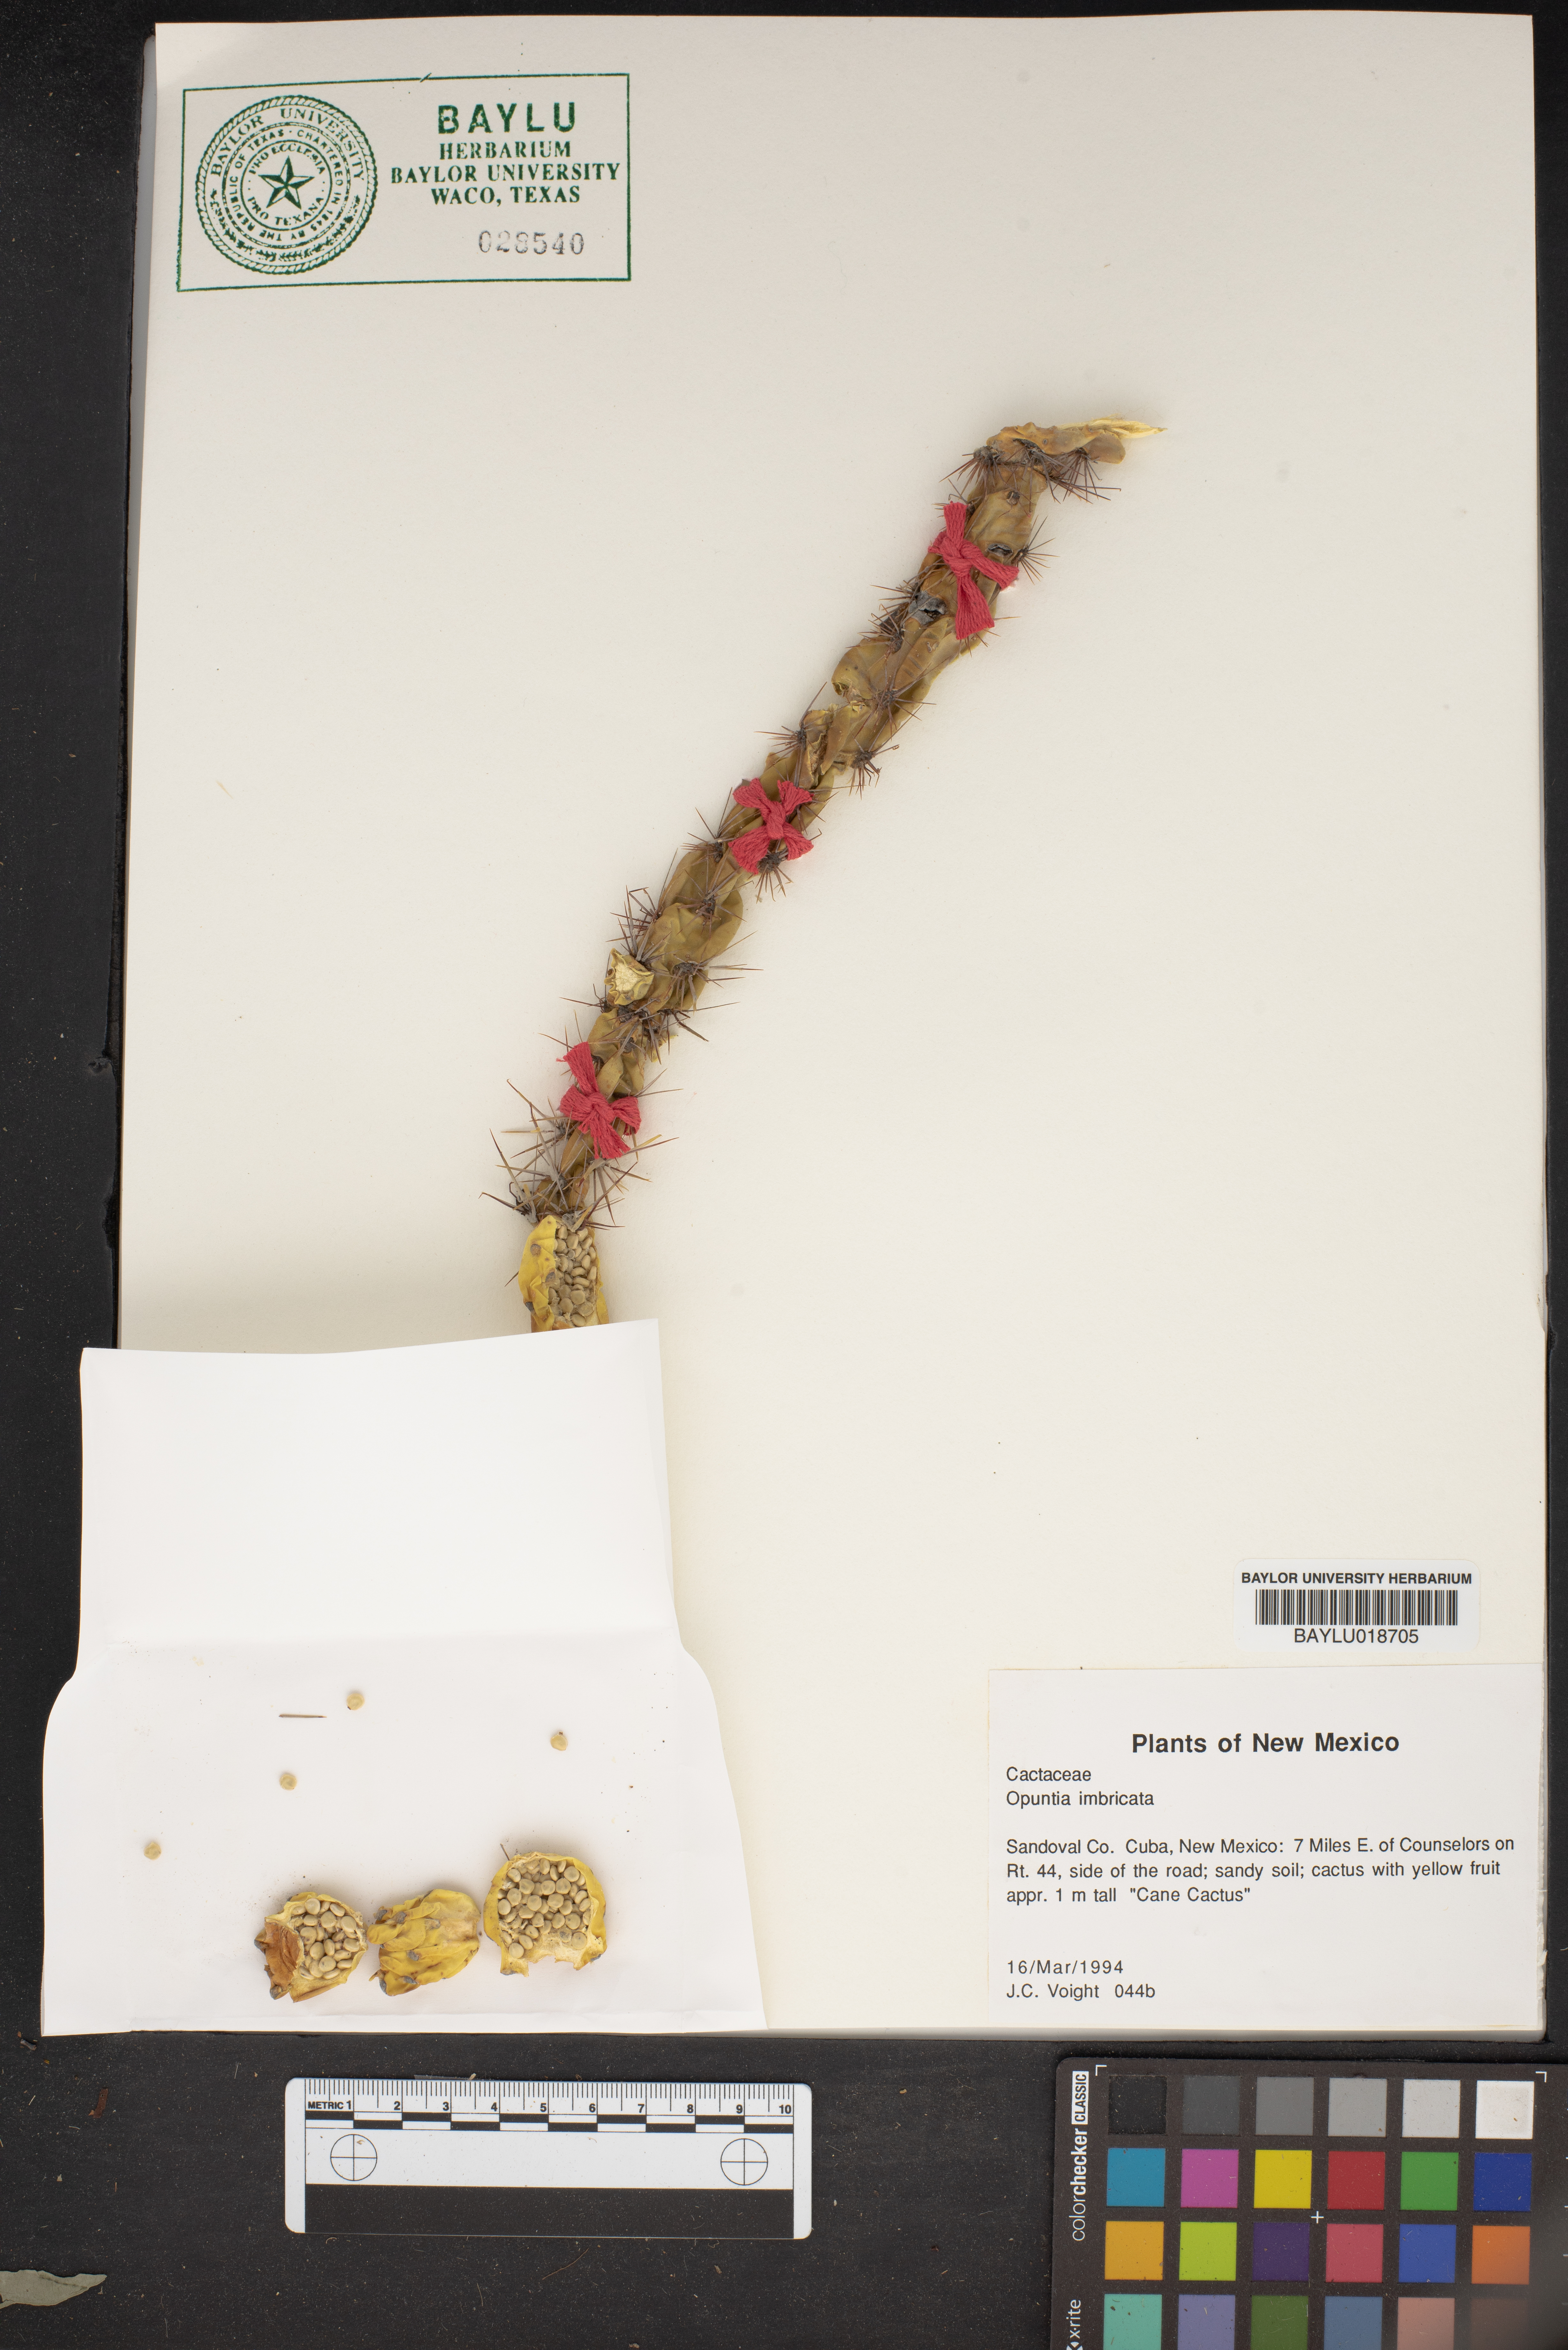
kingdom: Plantae
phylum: Tracheophyta
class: Magnoliopsida
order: Caryophyllales
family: Cactaceae
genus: Cylindropuntia
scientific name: Cylindropuntia imbricata
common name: Candelabrum cactus
